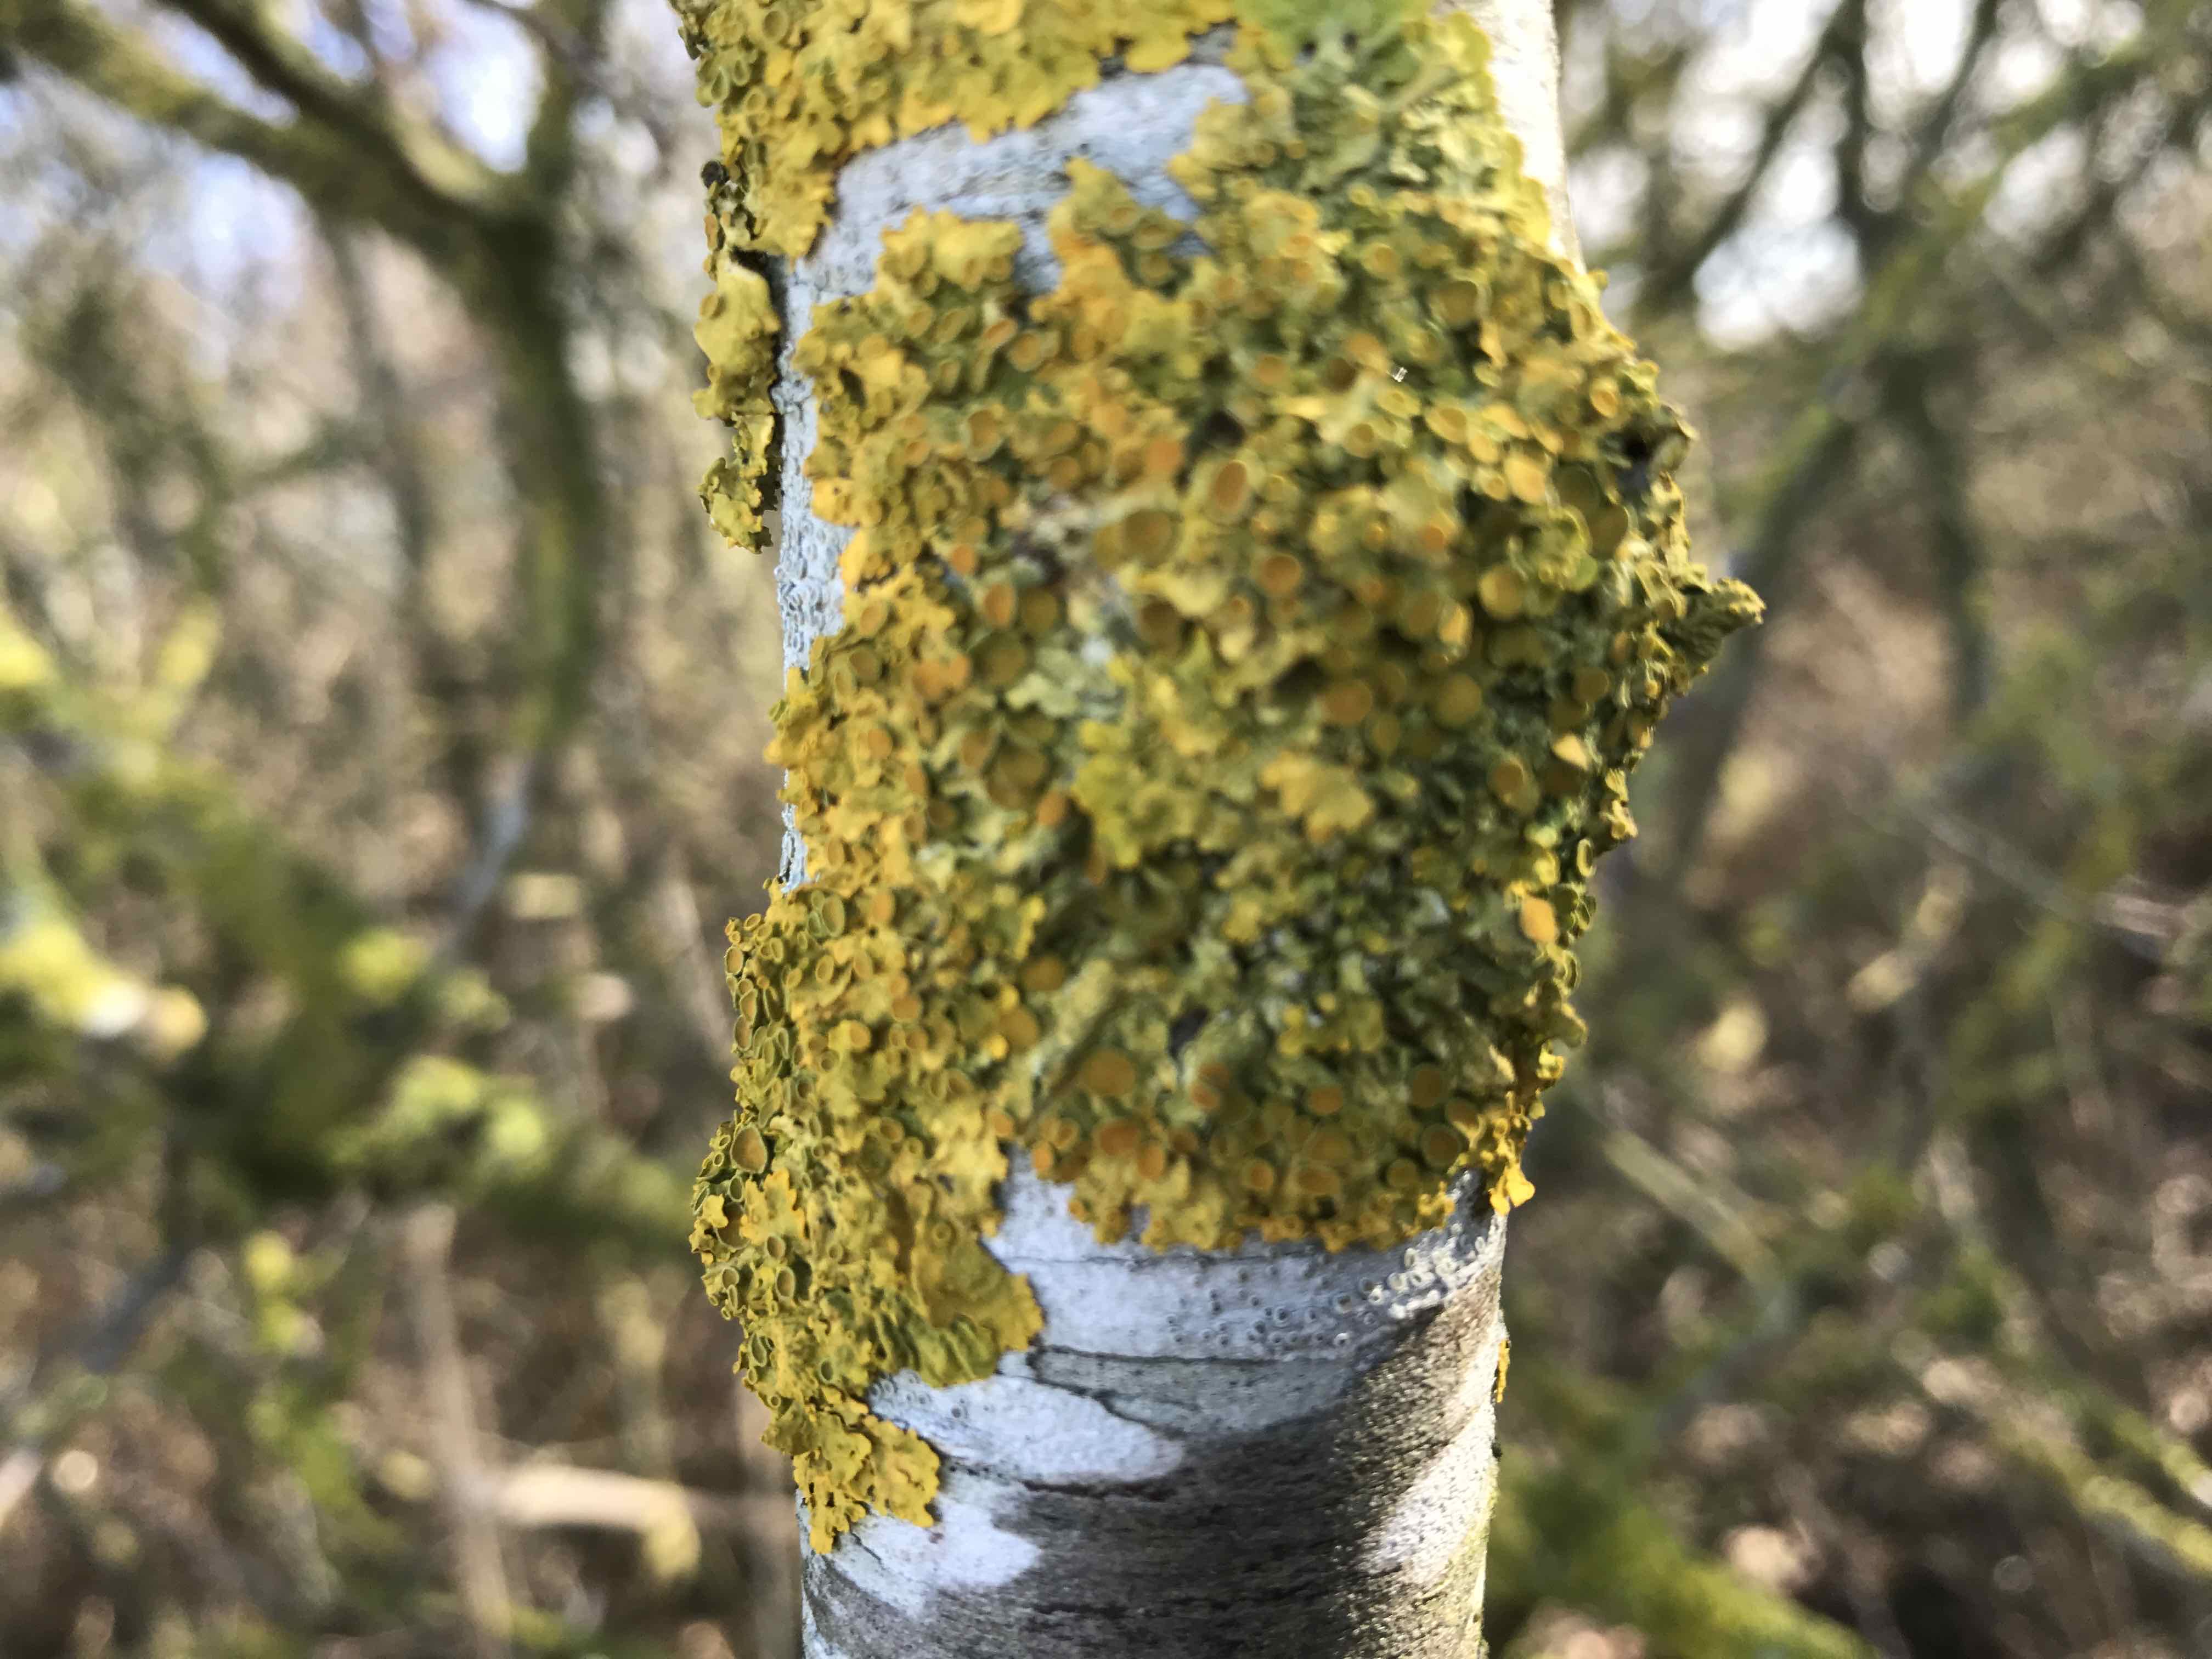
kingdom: Fungi
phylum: Ascomycota
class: Lecanoromycetes
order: Teloschistales
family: Teloschistaceae
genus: Xanthoria
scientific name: Xanthoria parietina
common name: almindelig væggelav
